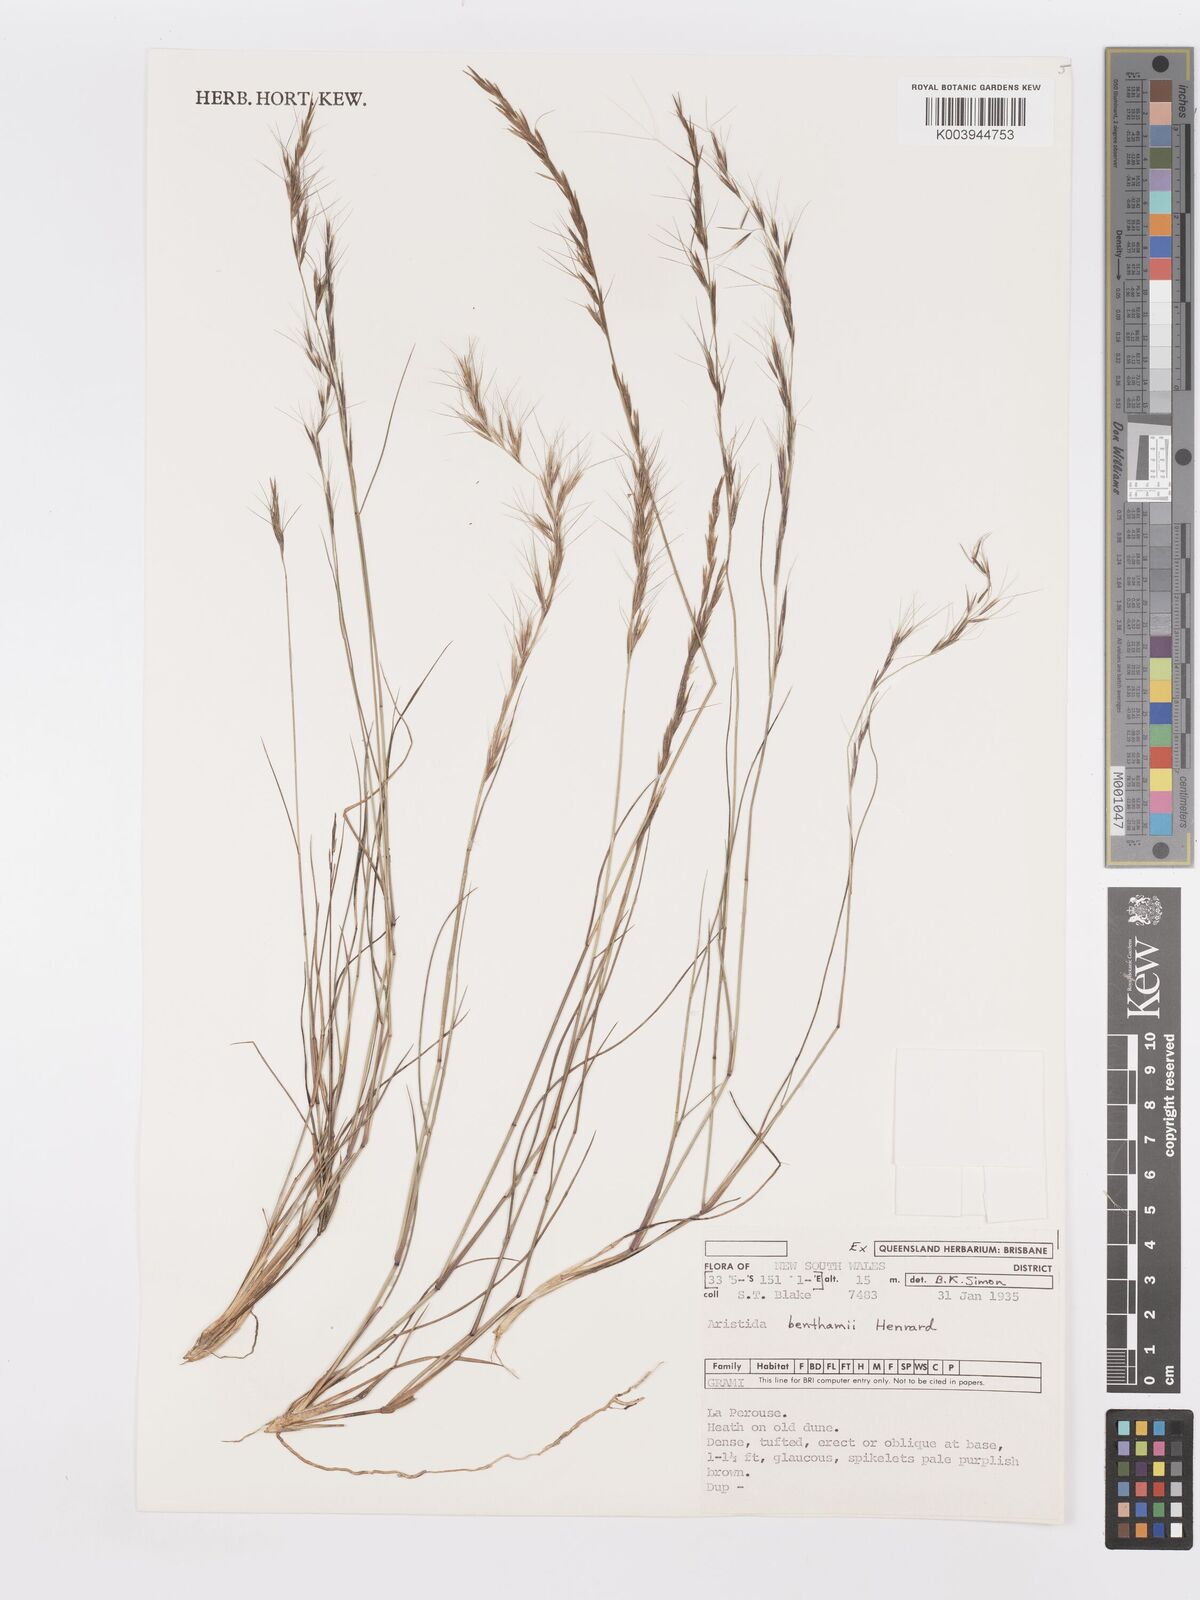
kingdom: Plantae
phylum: Tracheophyta
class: Liliopsida
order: Poales
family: Poaceae
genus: Aristida
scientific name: Aristida benthamii
